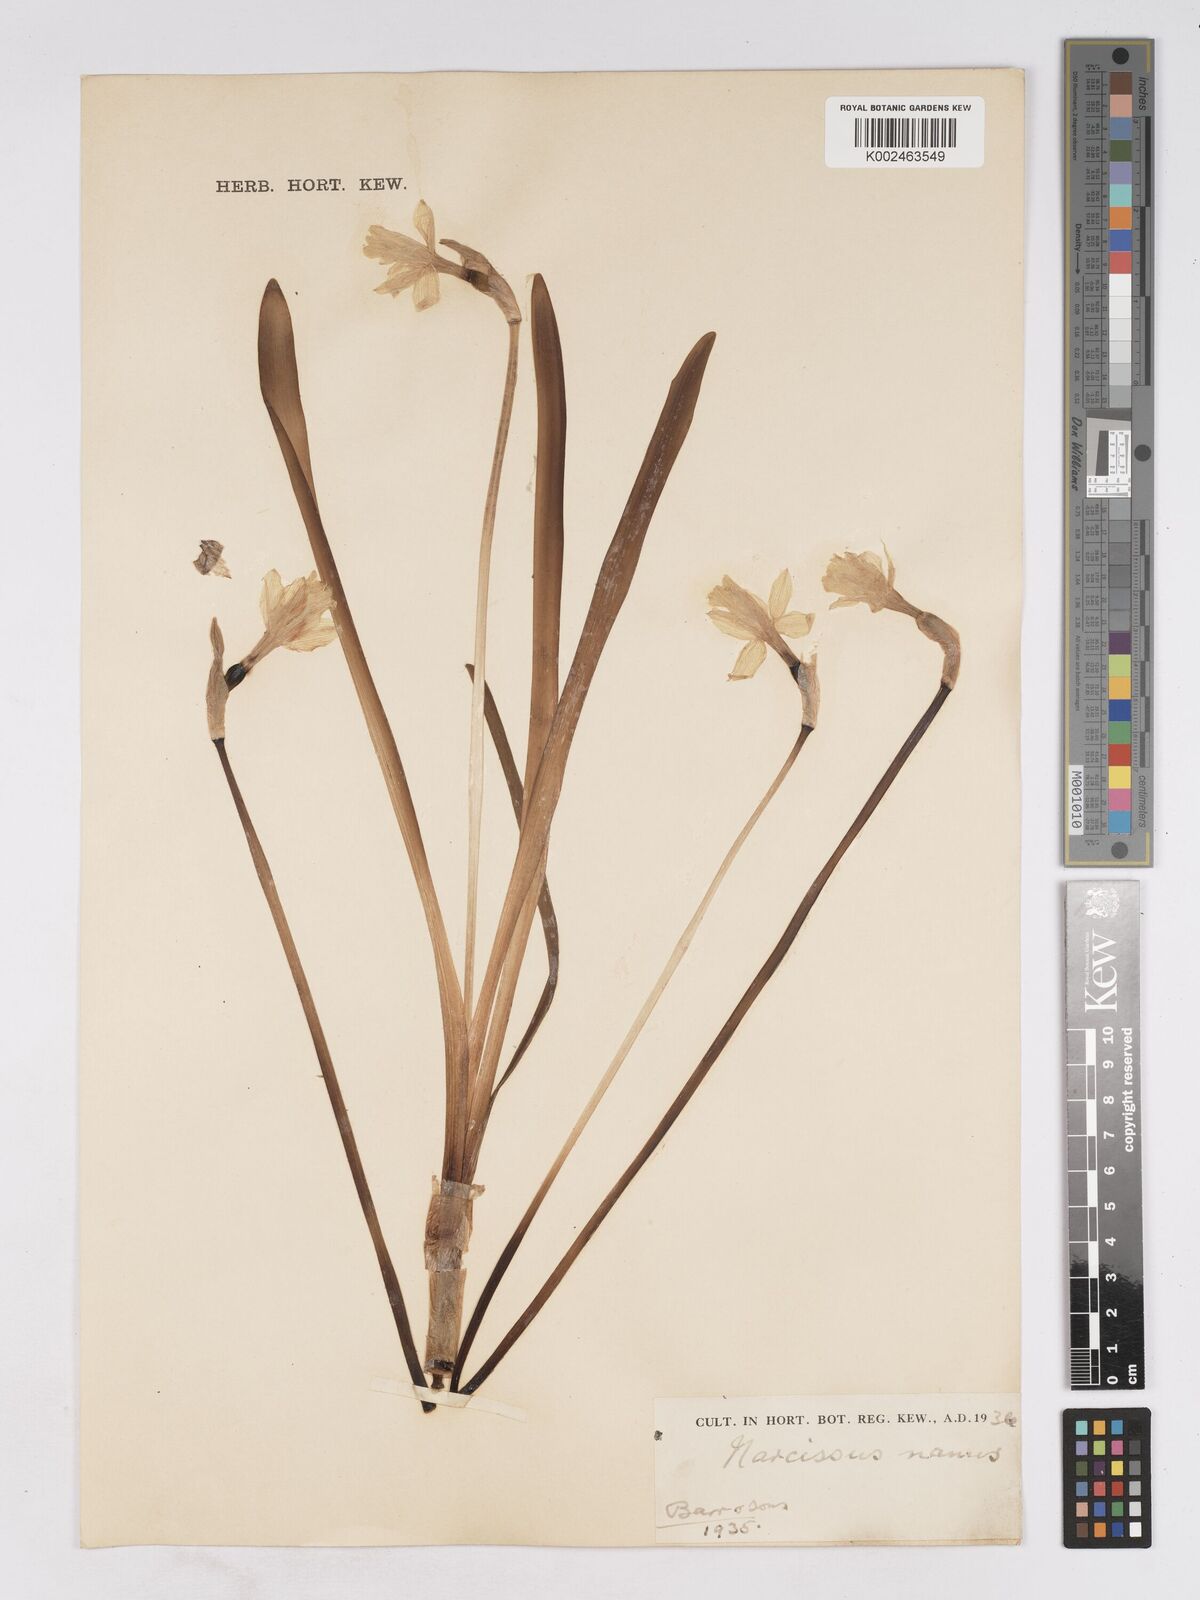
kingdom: Plantae
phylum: Tracheophyta
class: Liliopsida
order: Asparagales
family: Amaryllidaceae
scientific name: Amaryllidaceae
